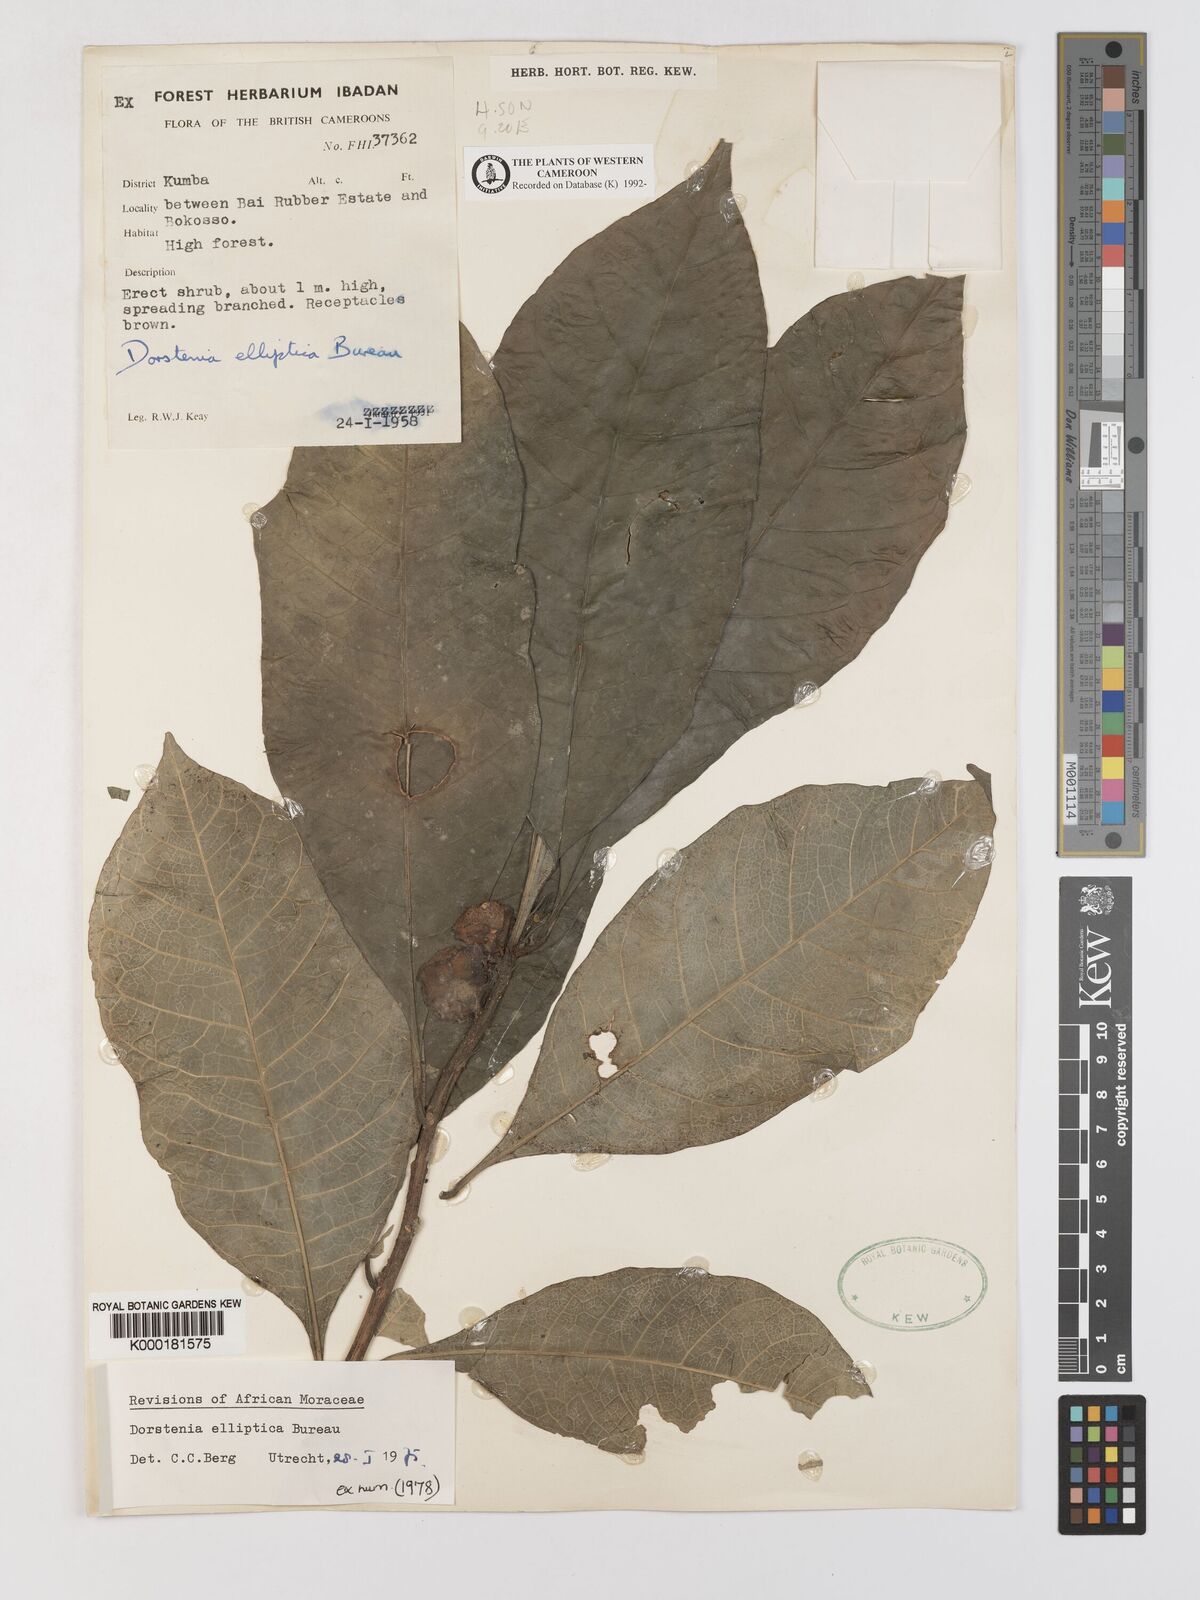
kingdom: Plantae
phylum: Tracheophyta
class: Magnoliopsida
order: Rosales
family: Moraceae
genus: Dorstenia
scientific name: Dorstenia elliptica
